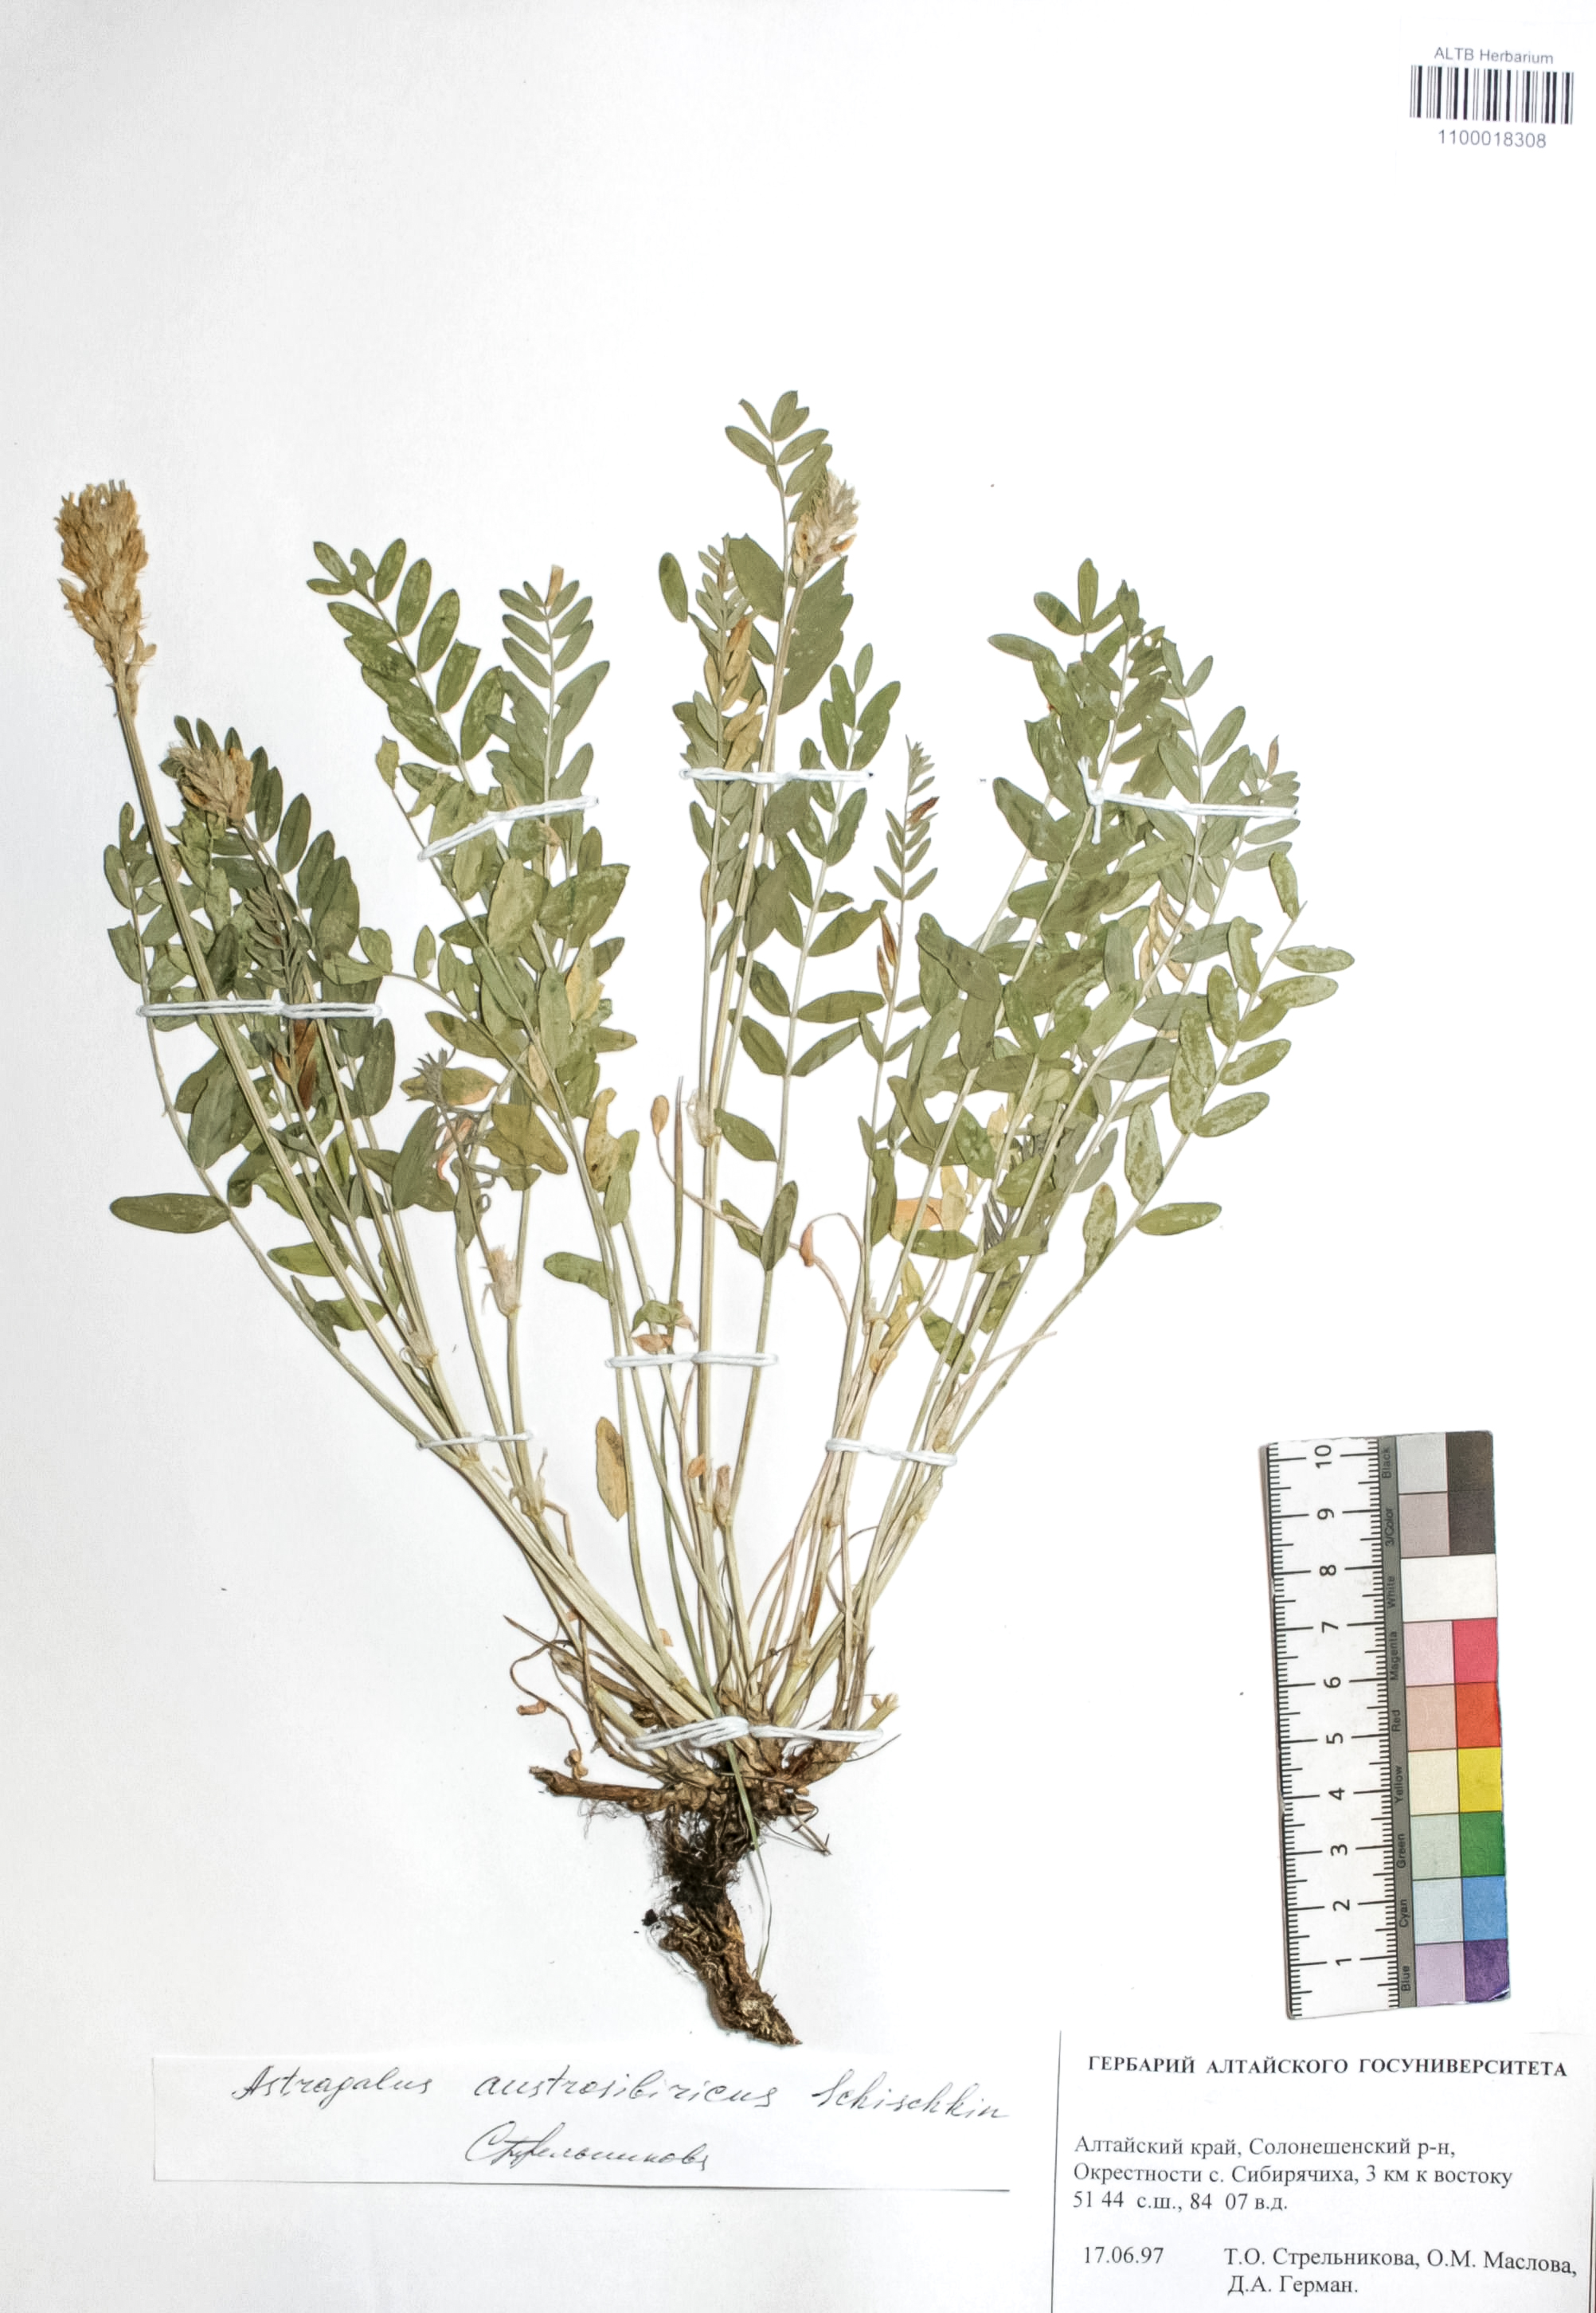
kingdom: Plantae
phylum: Tracheophyta
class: Magnoliopsida
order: Fabales
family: Fabaceae
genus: Astragalus
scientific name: Astragalus laxmannii
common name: Laxmann's milk-vetch
